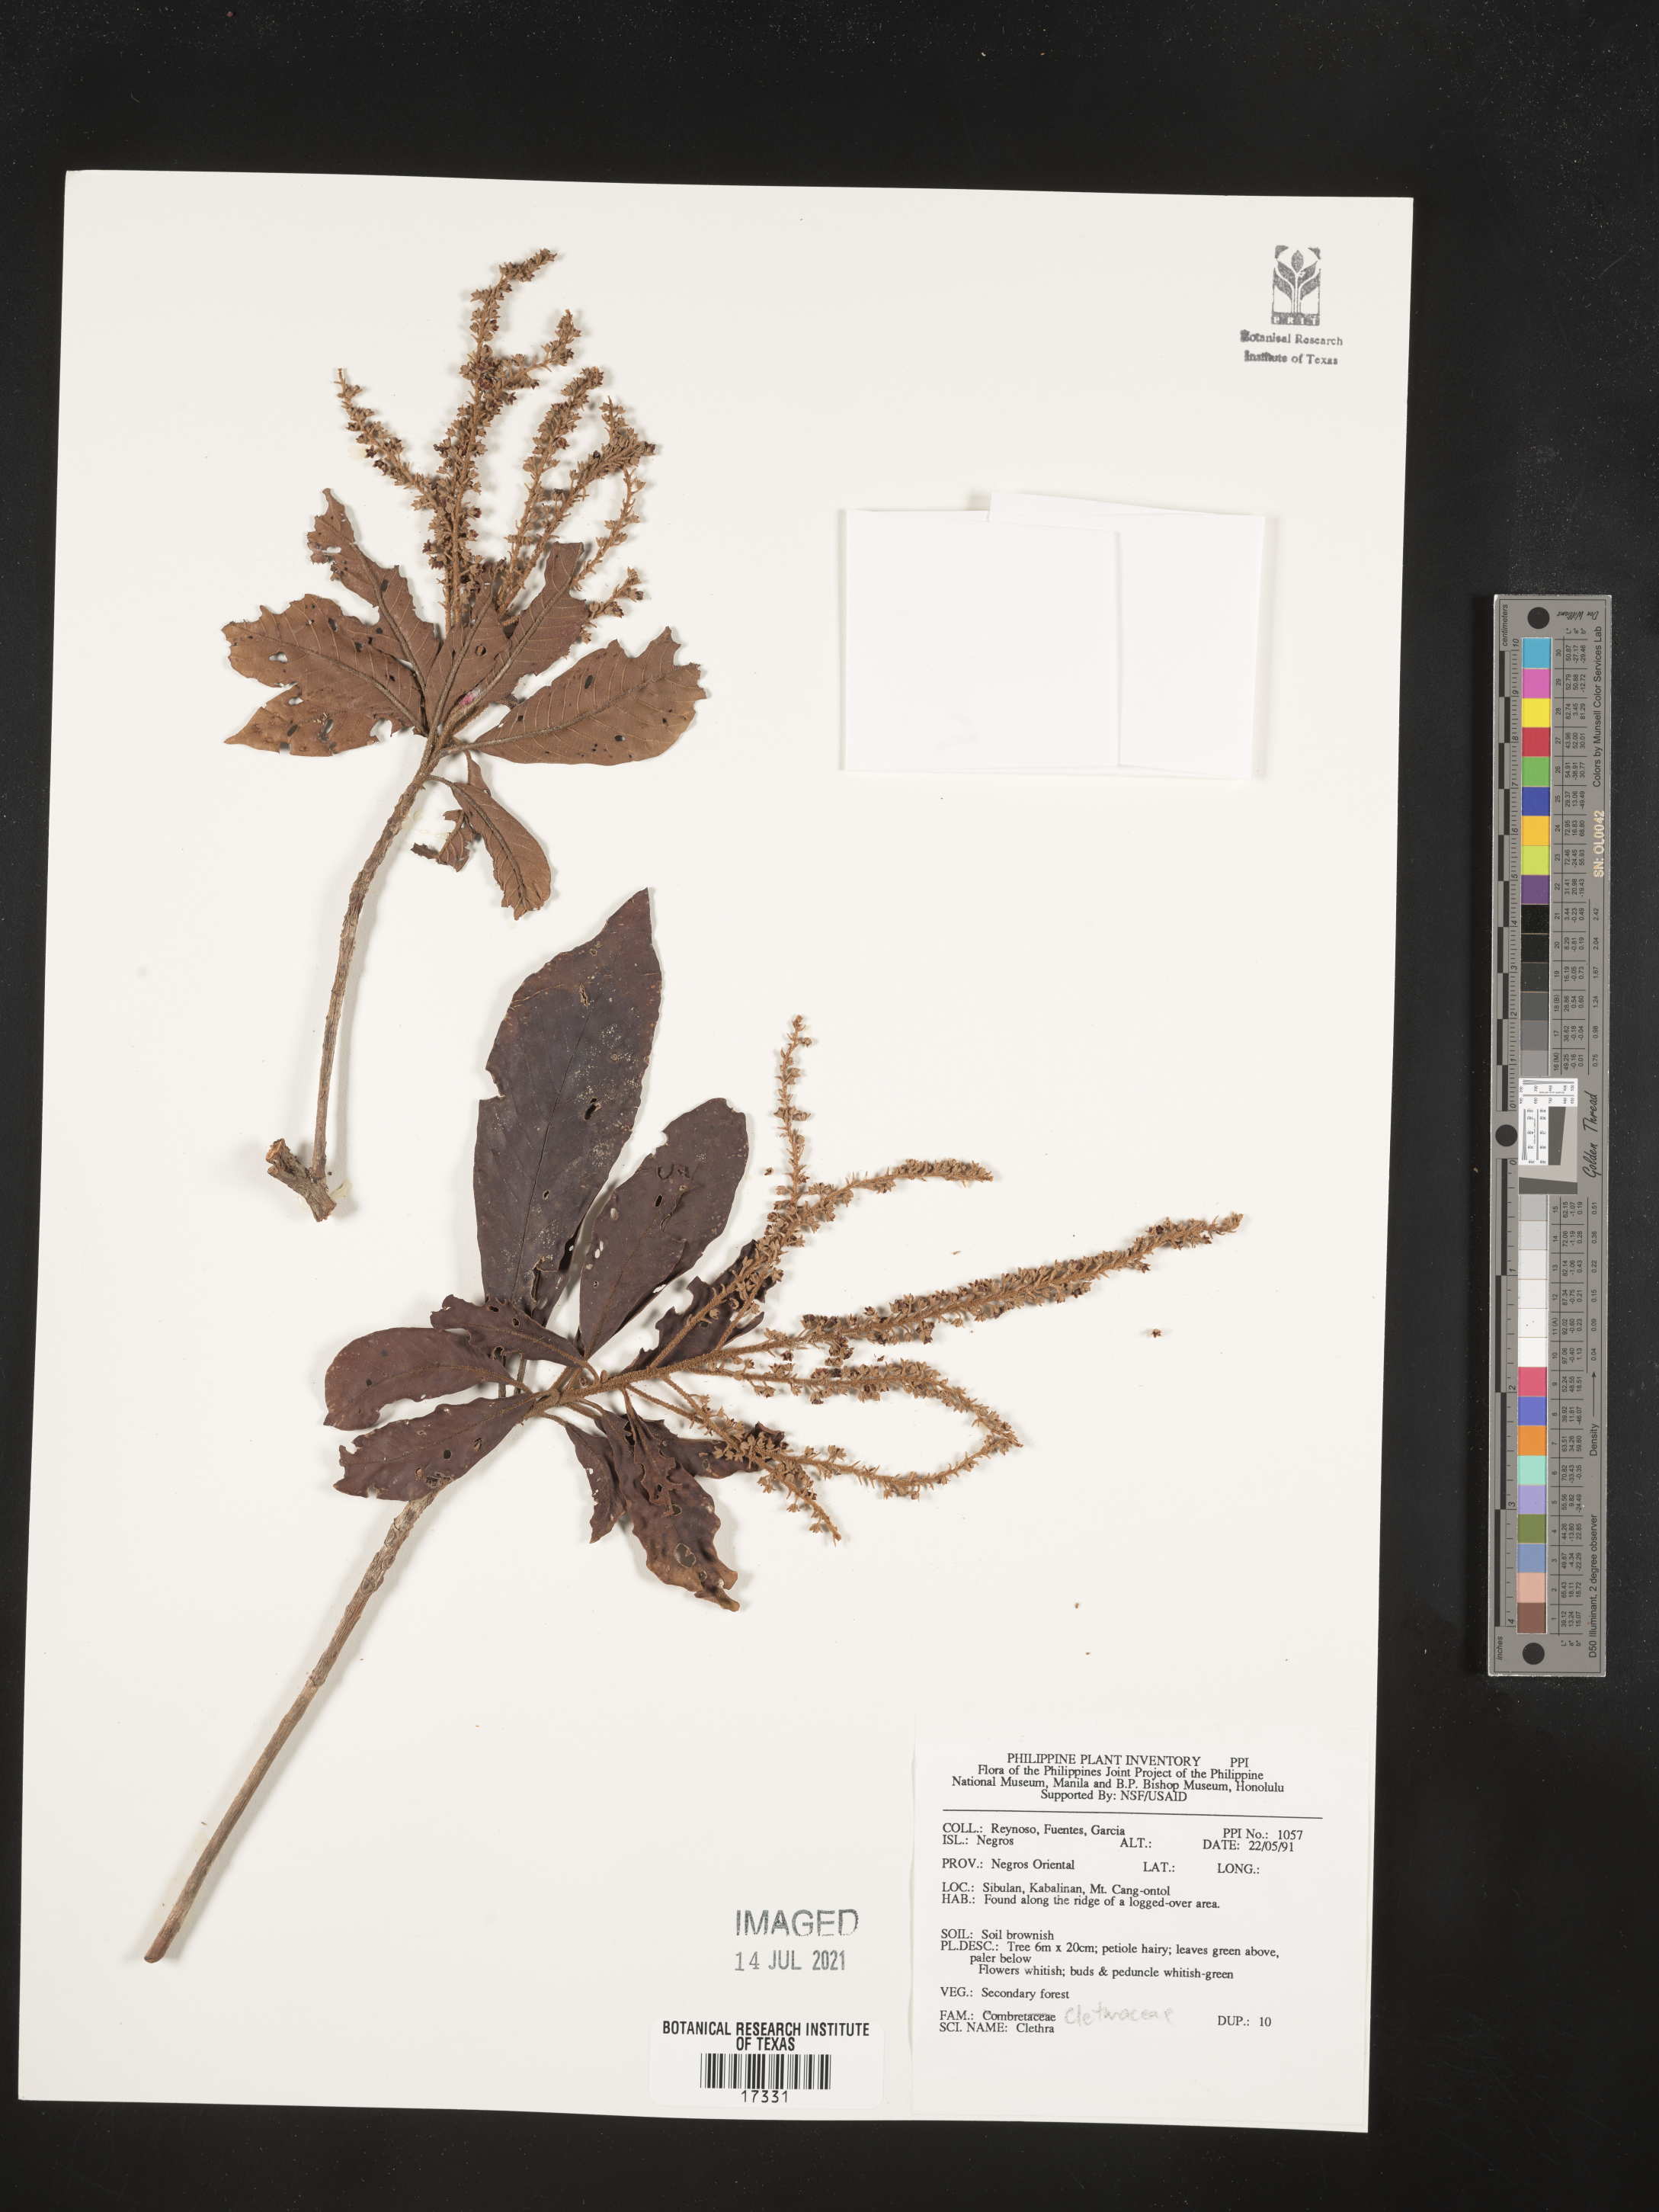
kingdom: Plantae
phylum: Tracheophyta
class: Magnoliopsida
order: Ericales
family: Clethraceae
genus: Clethra
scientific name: Clethra
